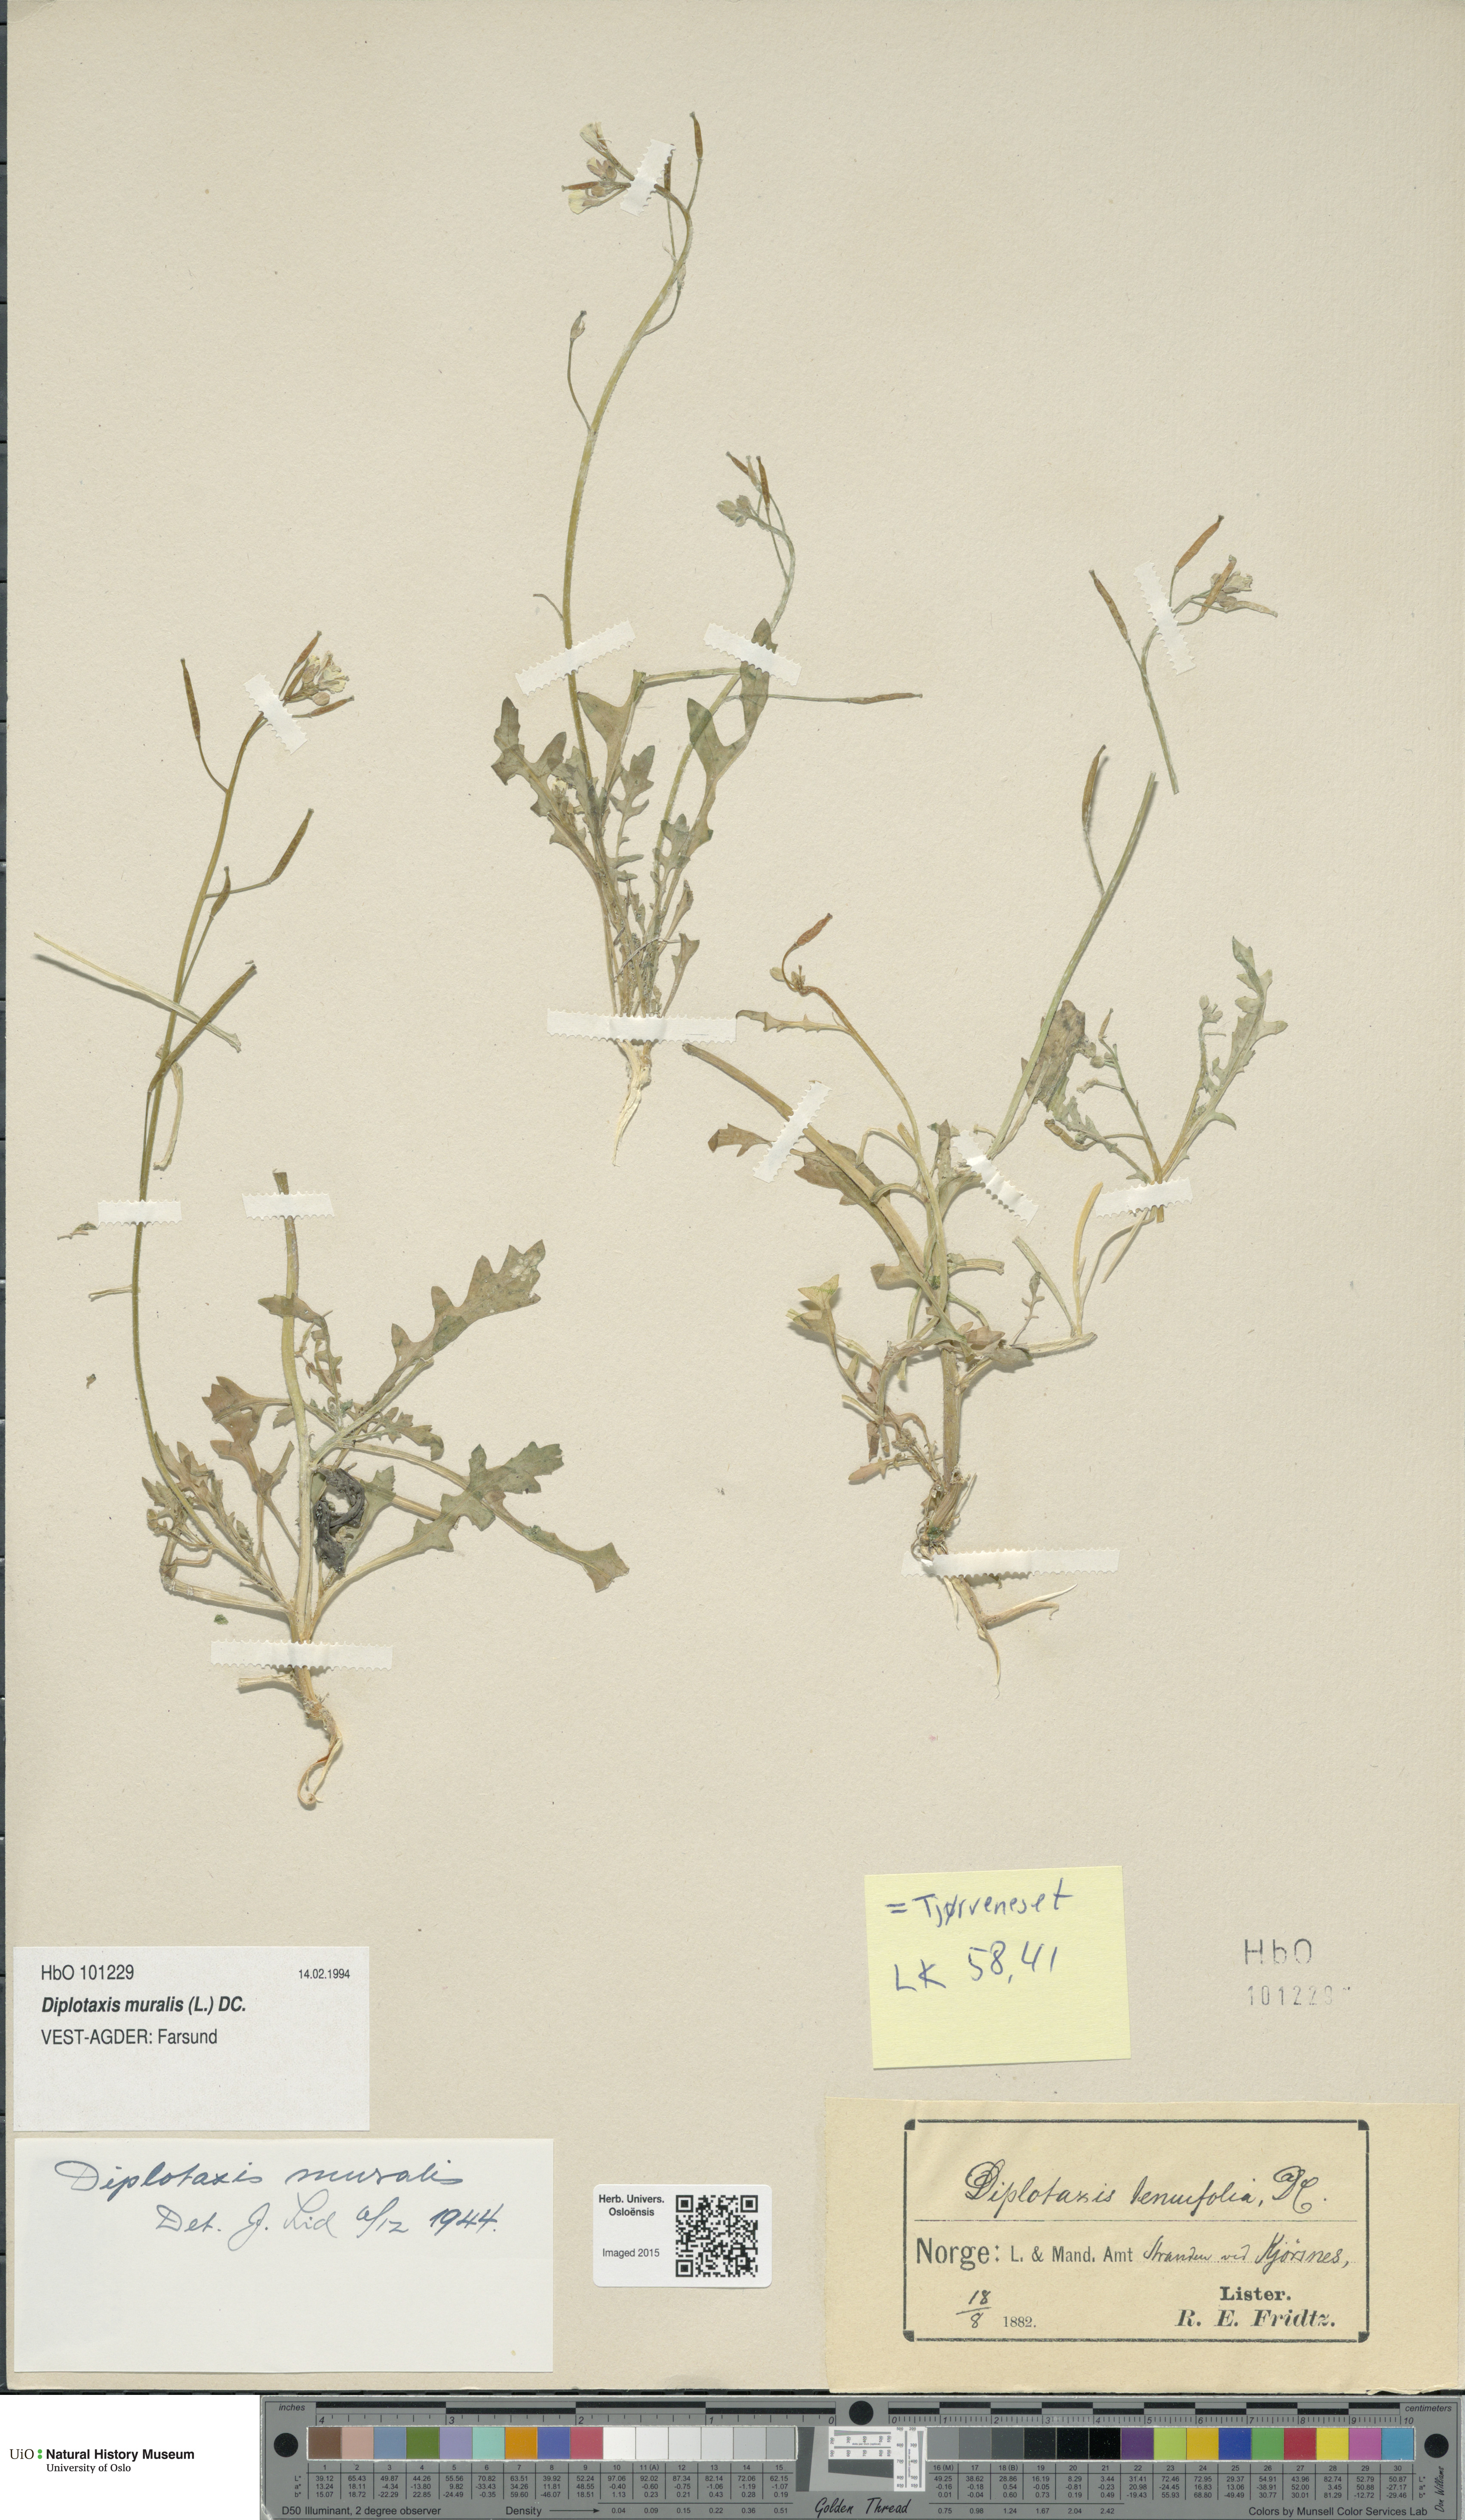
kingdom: Plantae
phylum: Tracheophyta
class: Magnoliopsida
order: Brassicales
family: Brassicaceae
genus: Diplotaxis
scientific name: Diplotaxis muralis
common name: Annual wall-rocket
